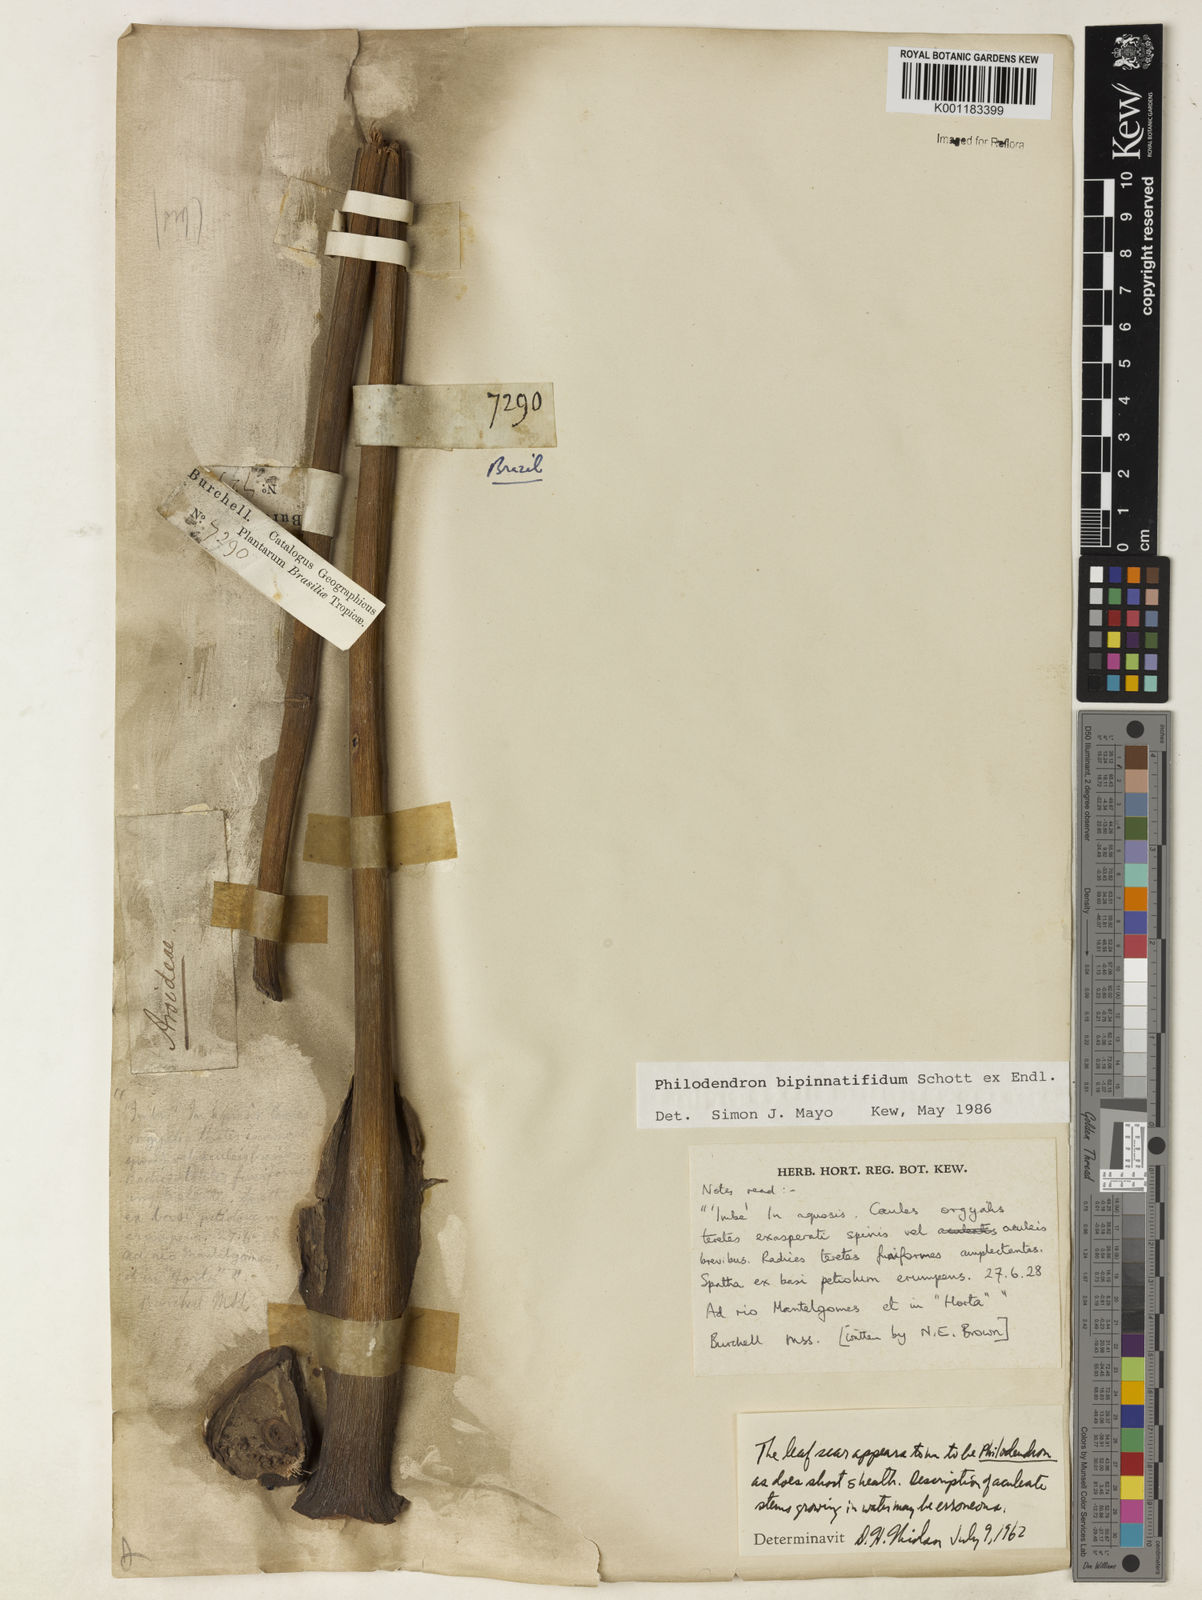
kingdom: Plantae
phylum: Tracheophyta
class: Liliopsida
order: Alismatales
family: Araceae
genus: Philodendron
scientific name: Philodendron
